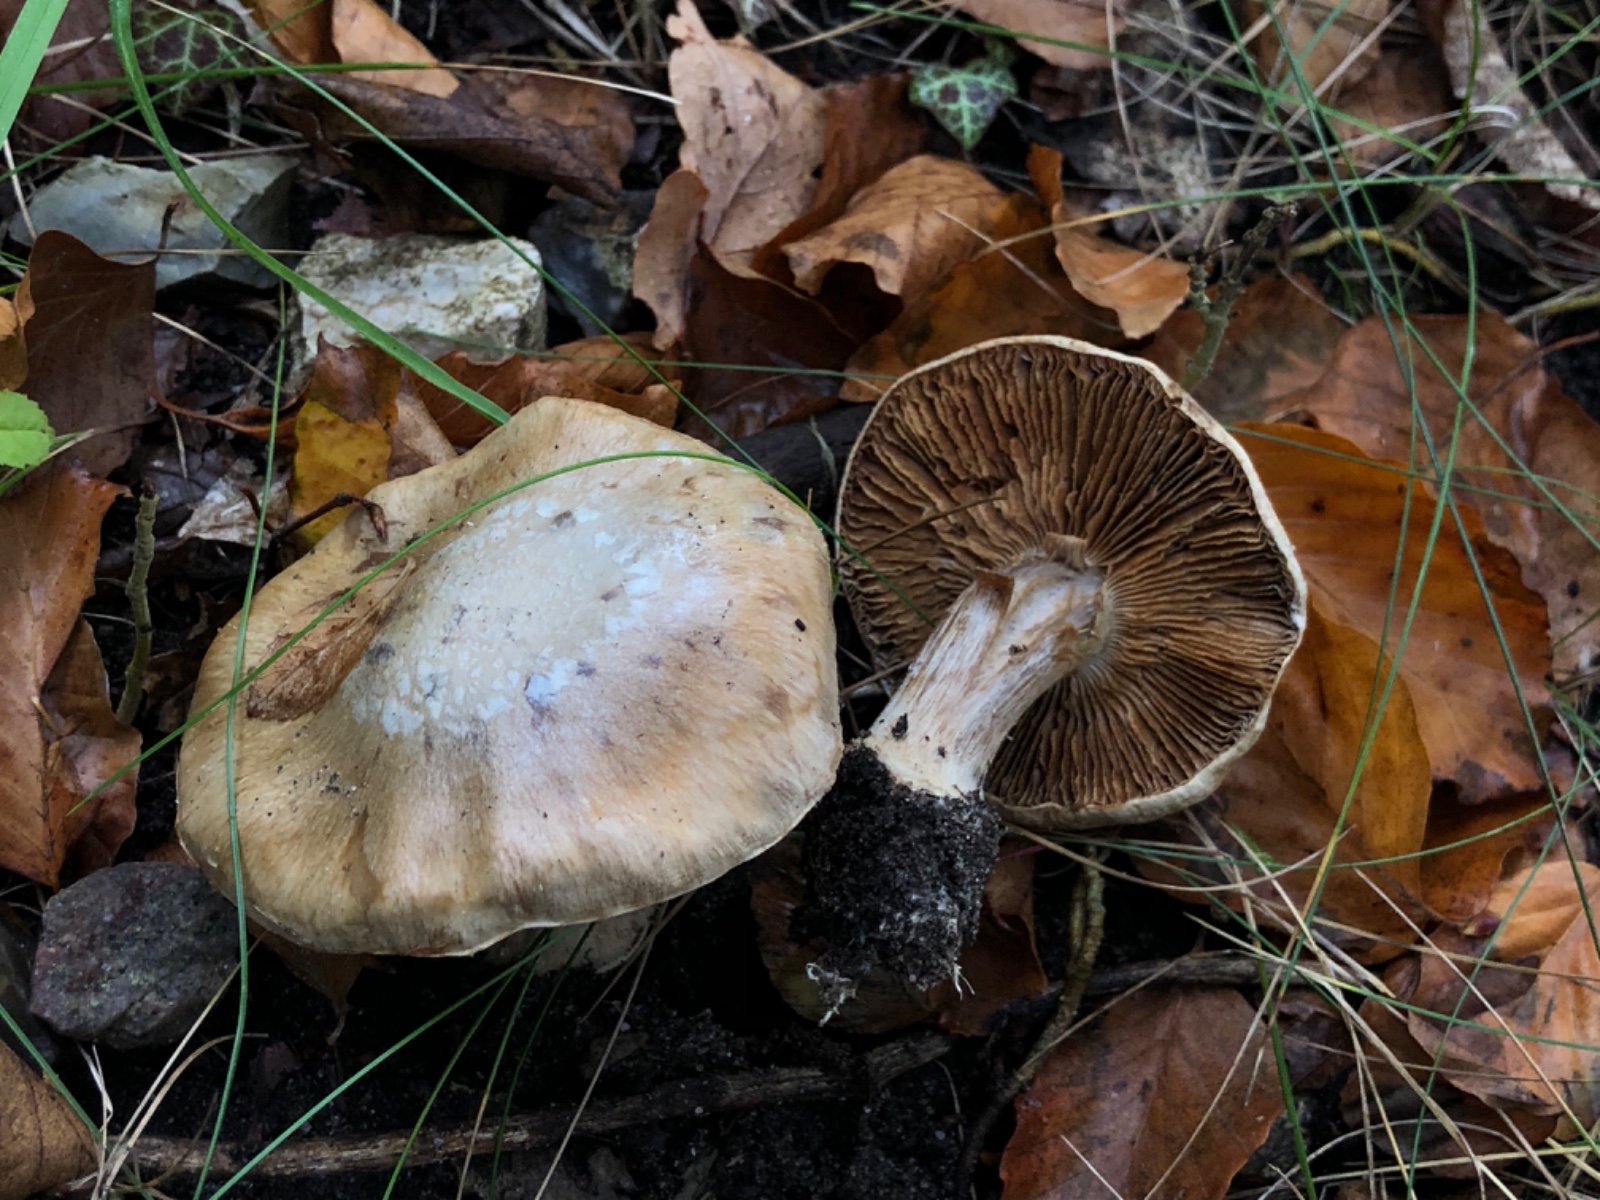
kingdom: Fungi
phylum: Basidiomycota
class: Agaricomycetes
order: Agaricales
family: Cortinariaceae
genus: Phlegmacium
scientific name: Phlegmacium
